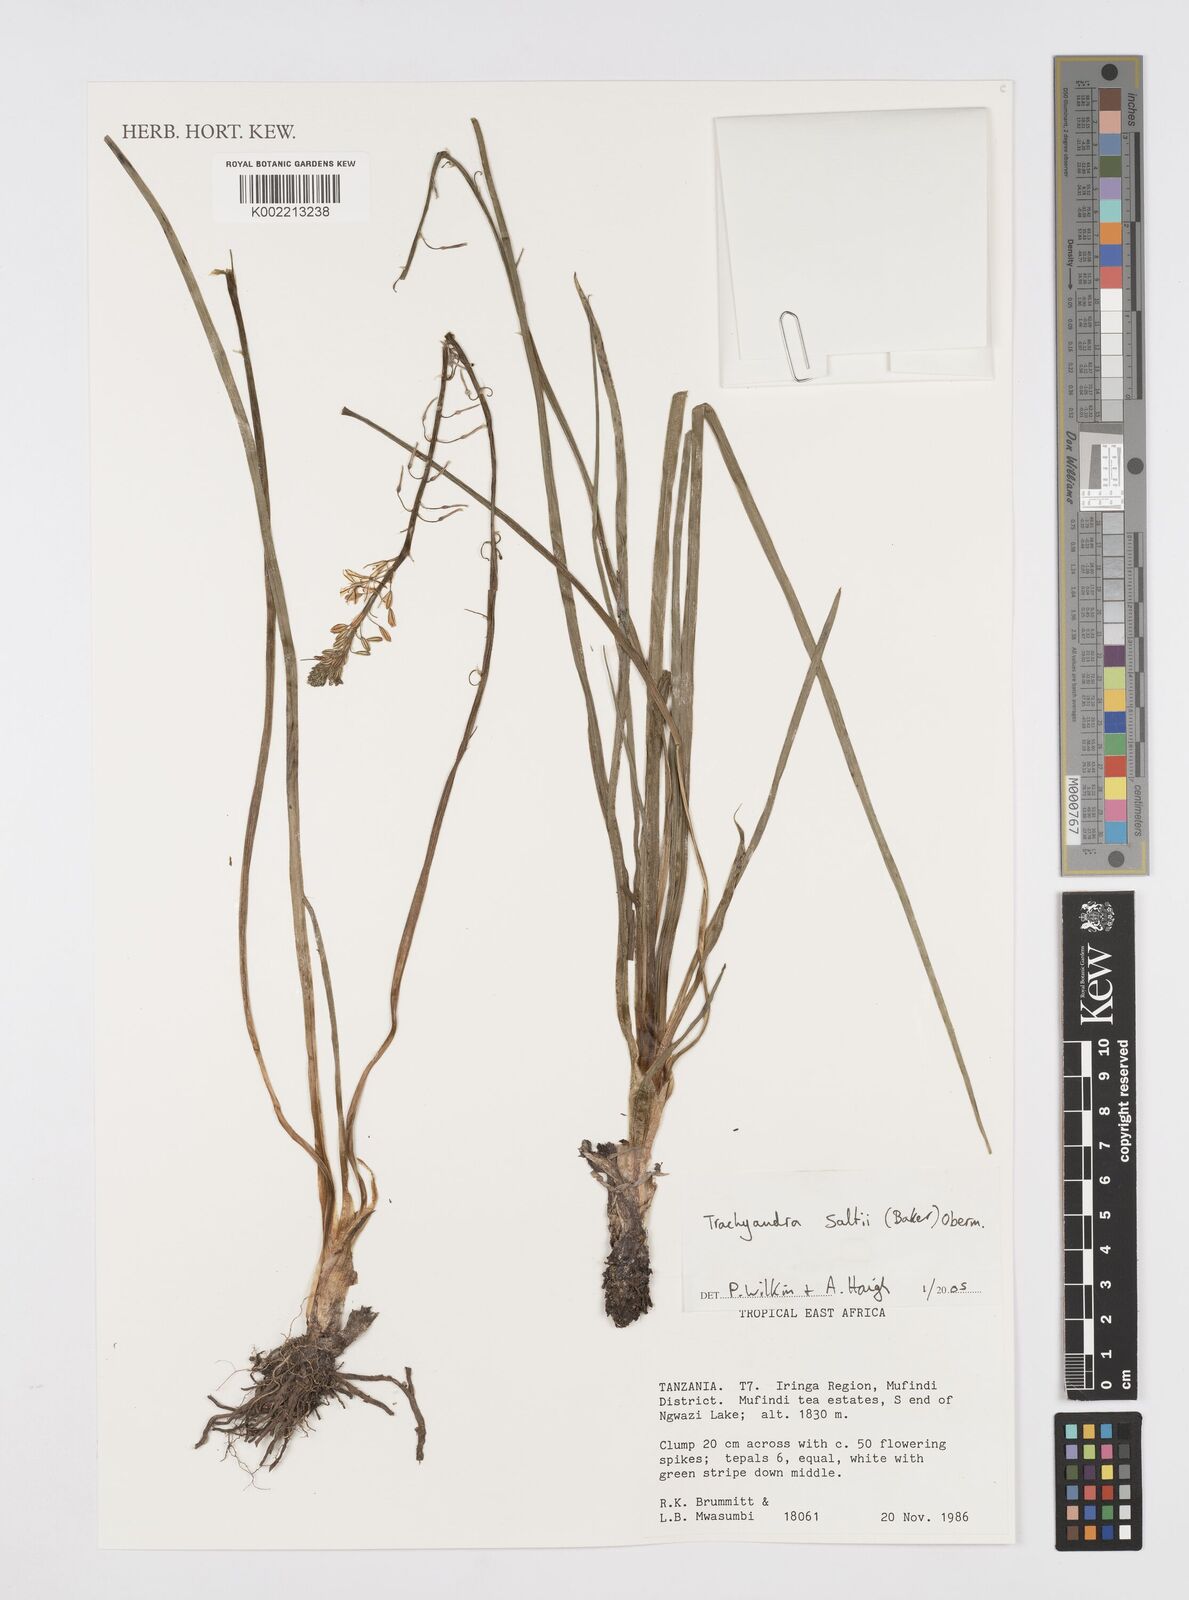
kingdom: Plantae
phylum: Tracheophyta
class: Liliopsida
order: Asparagales
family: Asphodelaceae
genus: Trachyandra
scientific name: Trachyandra saltii
